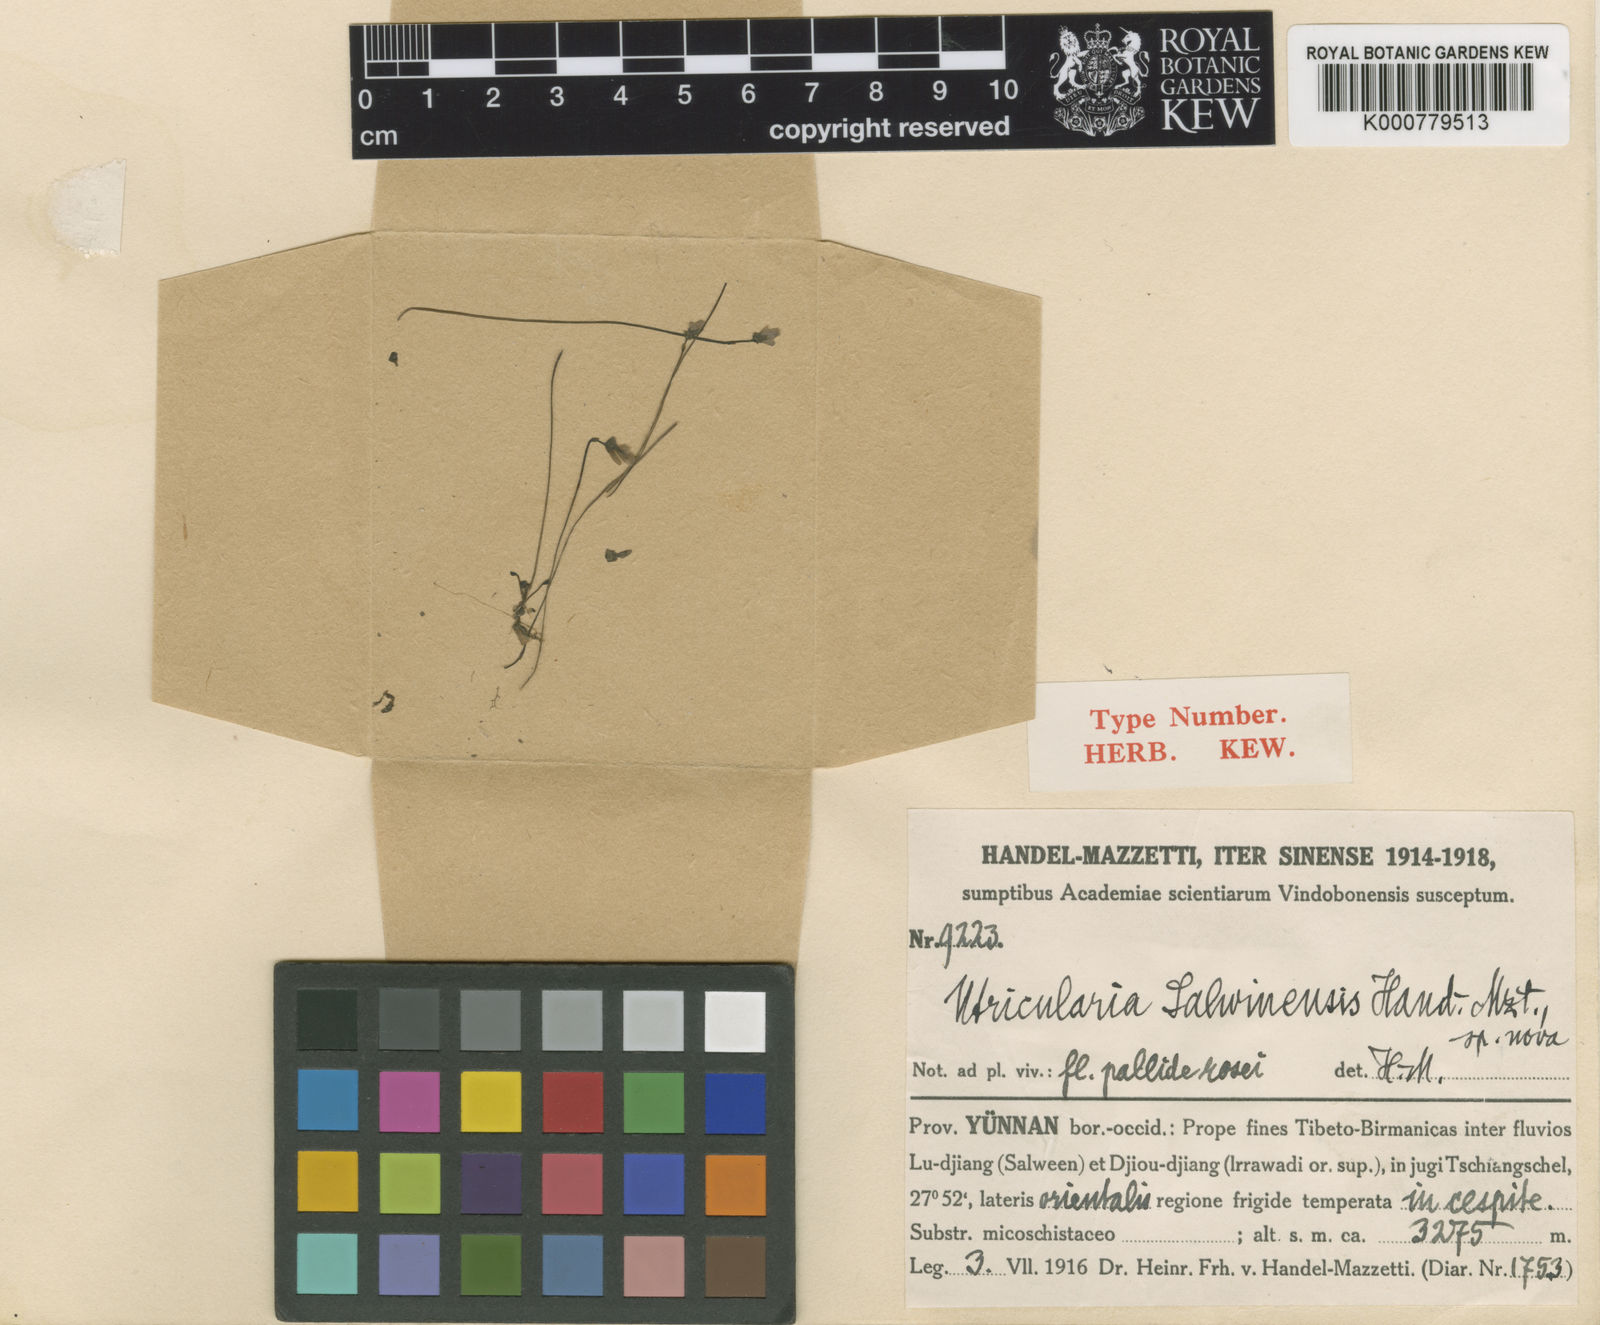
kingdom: Plantae
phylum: Tracheophyta
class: Magnoliopsida
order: Lamiales
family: Lentibulariaceae
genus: Utricularia
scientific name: Utricularia salwinensis
